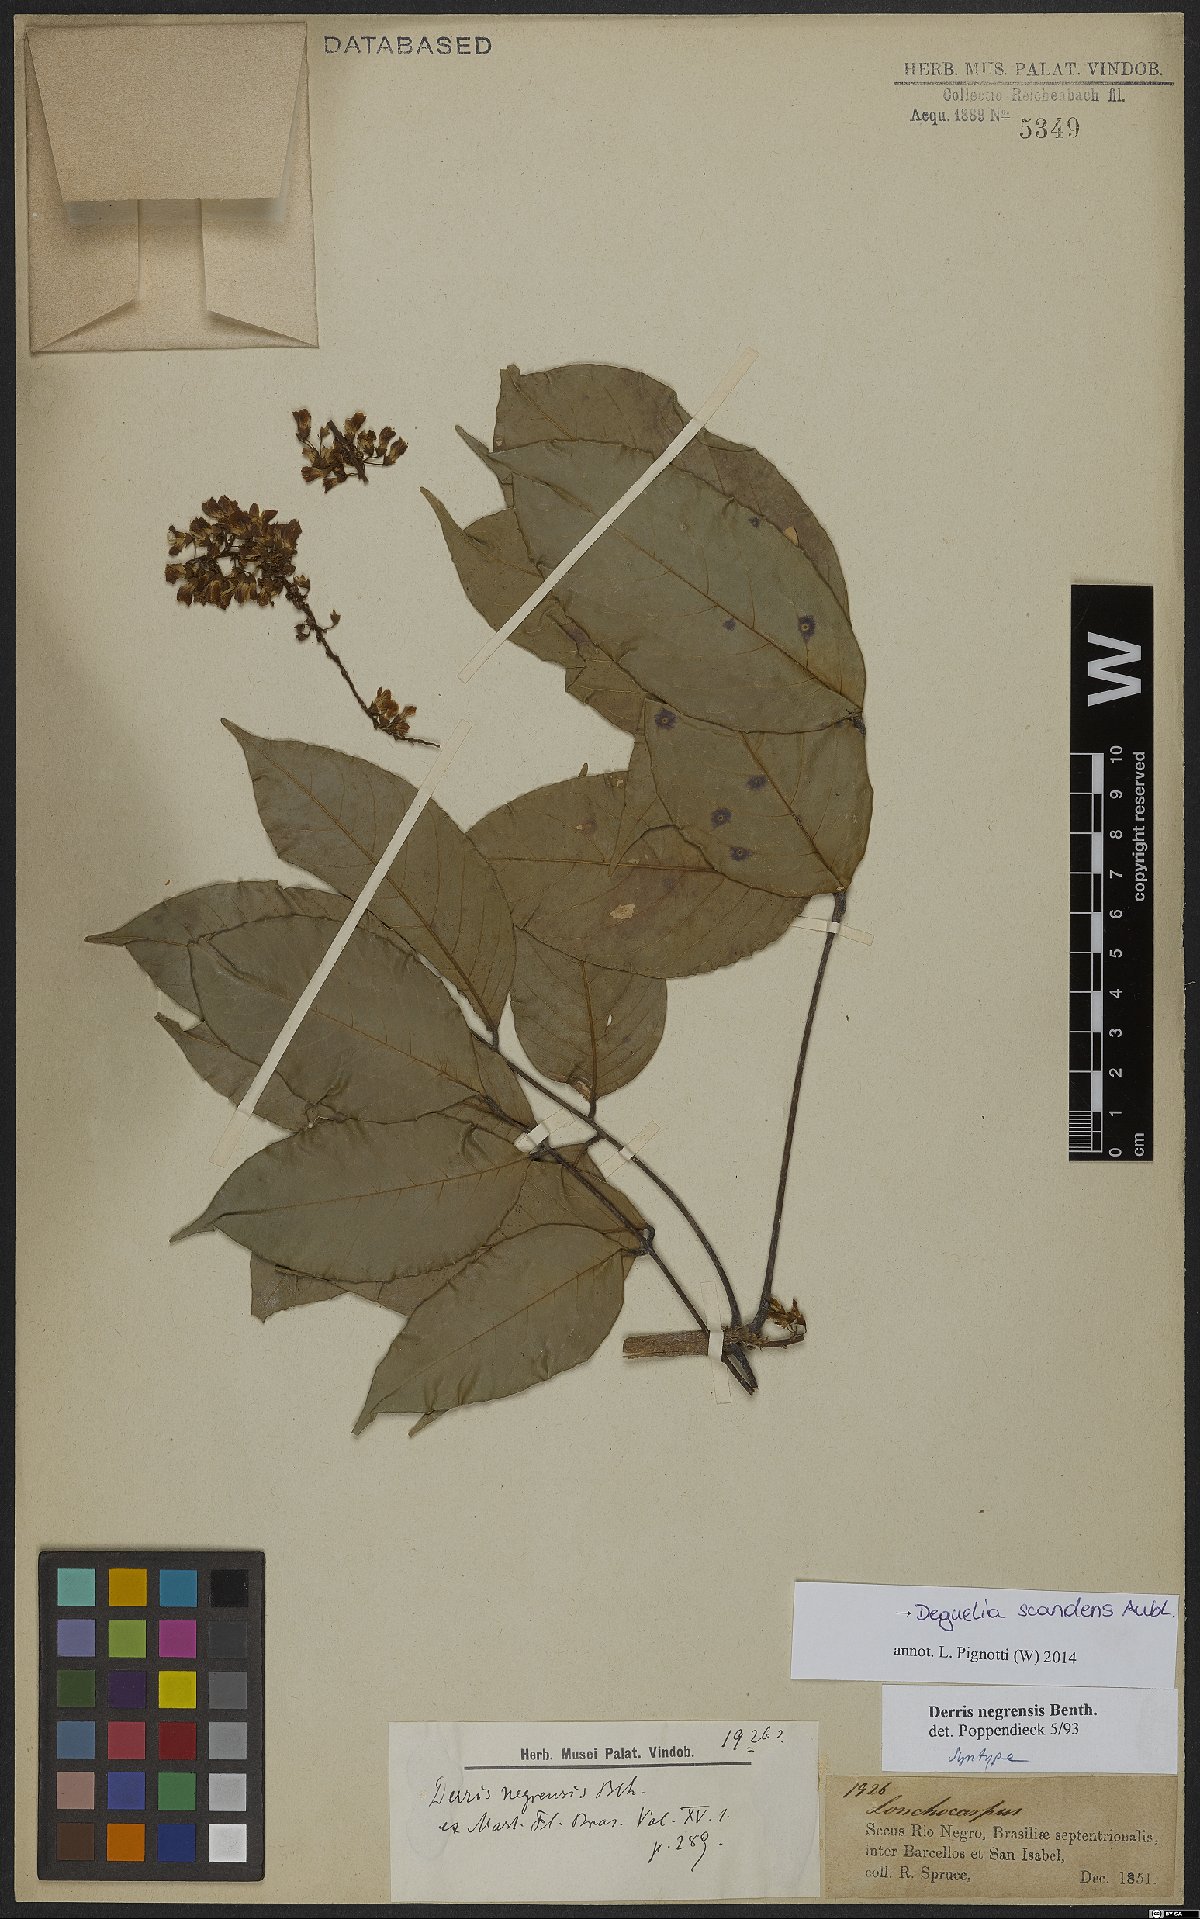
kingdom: Plantae
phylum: Tracheophyta
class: Magnoliopsida
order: Fabales
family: Fabaceae
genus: Deguelia
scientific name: Deguelia scandens
